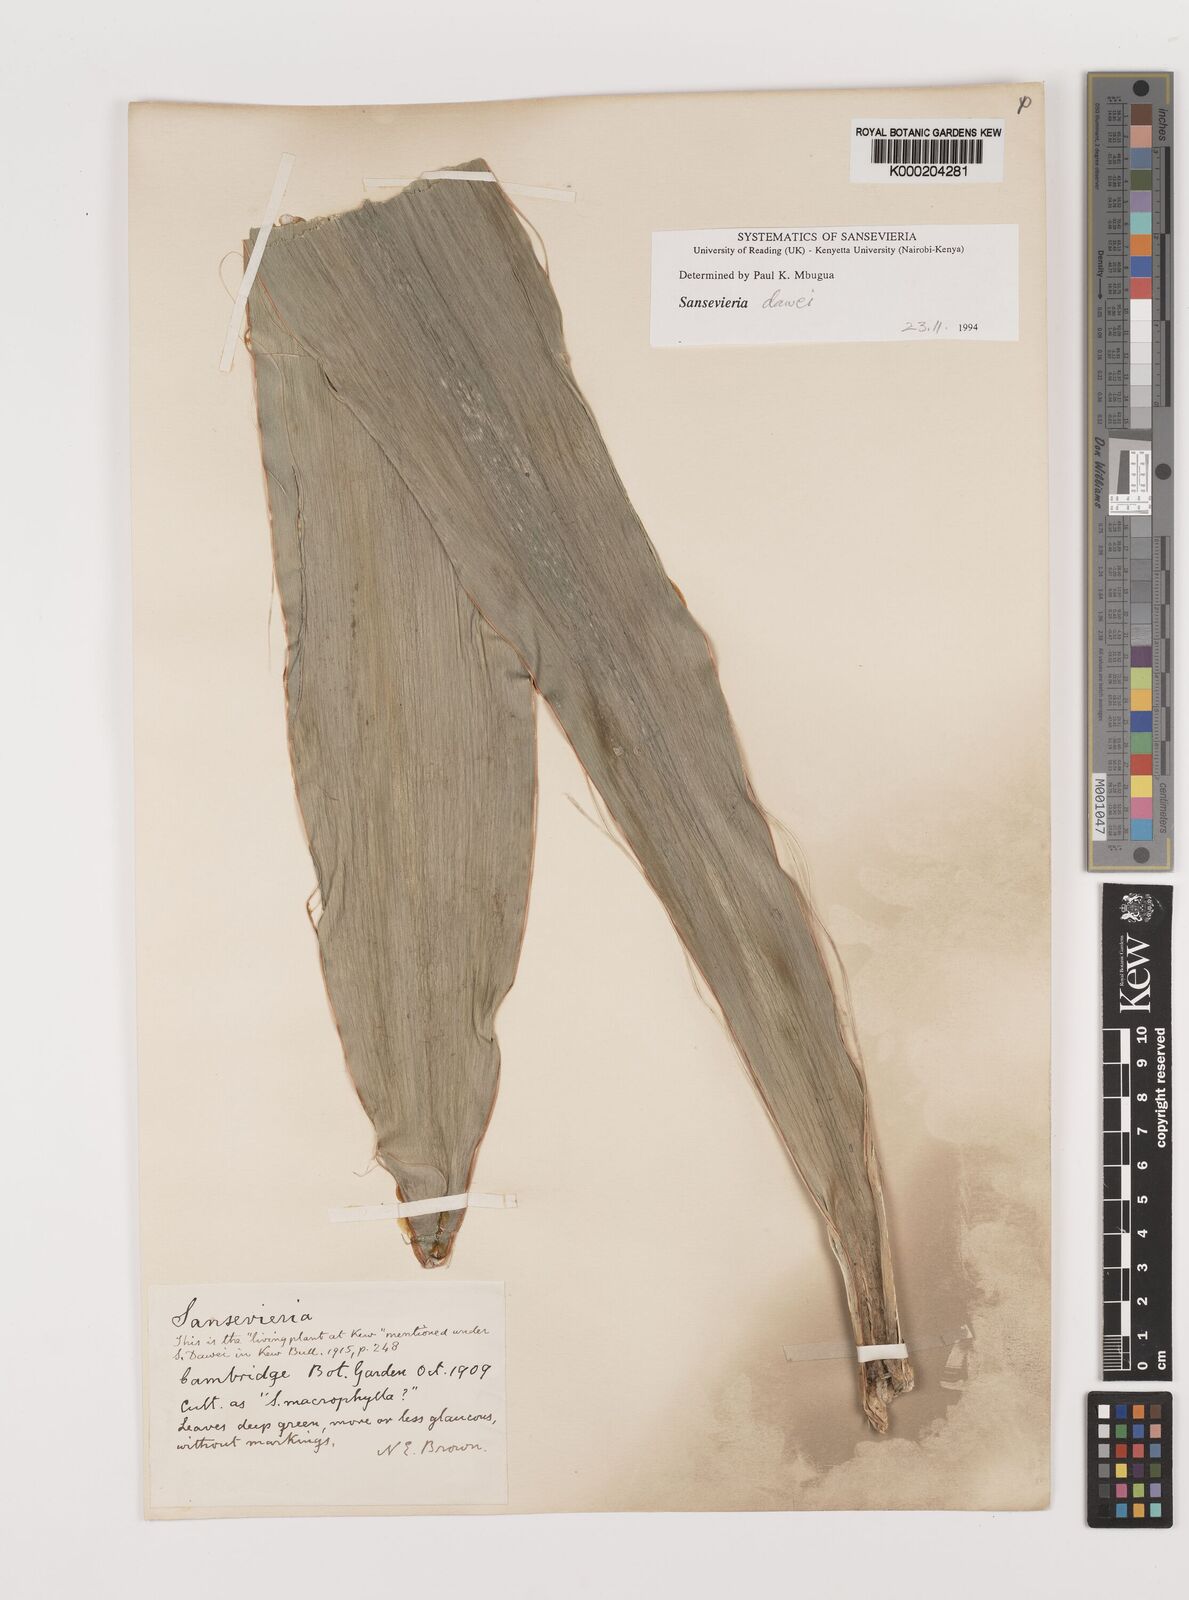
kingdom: Plantae
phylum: Tracheophyta
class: Liliopsida
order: Asparagales
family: Asparagaceae
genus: Dracaena
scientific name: Dracaena dawei
